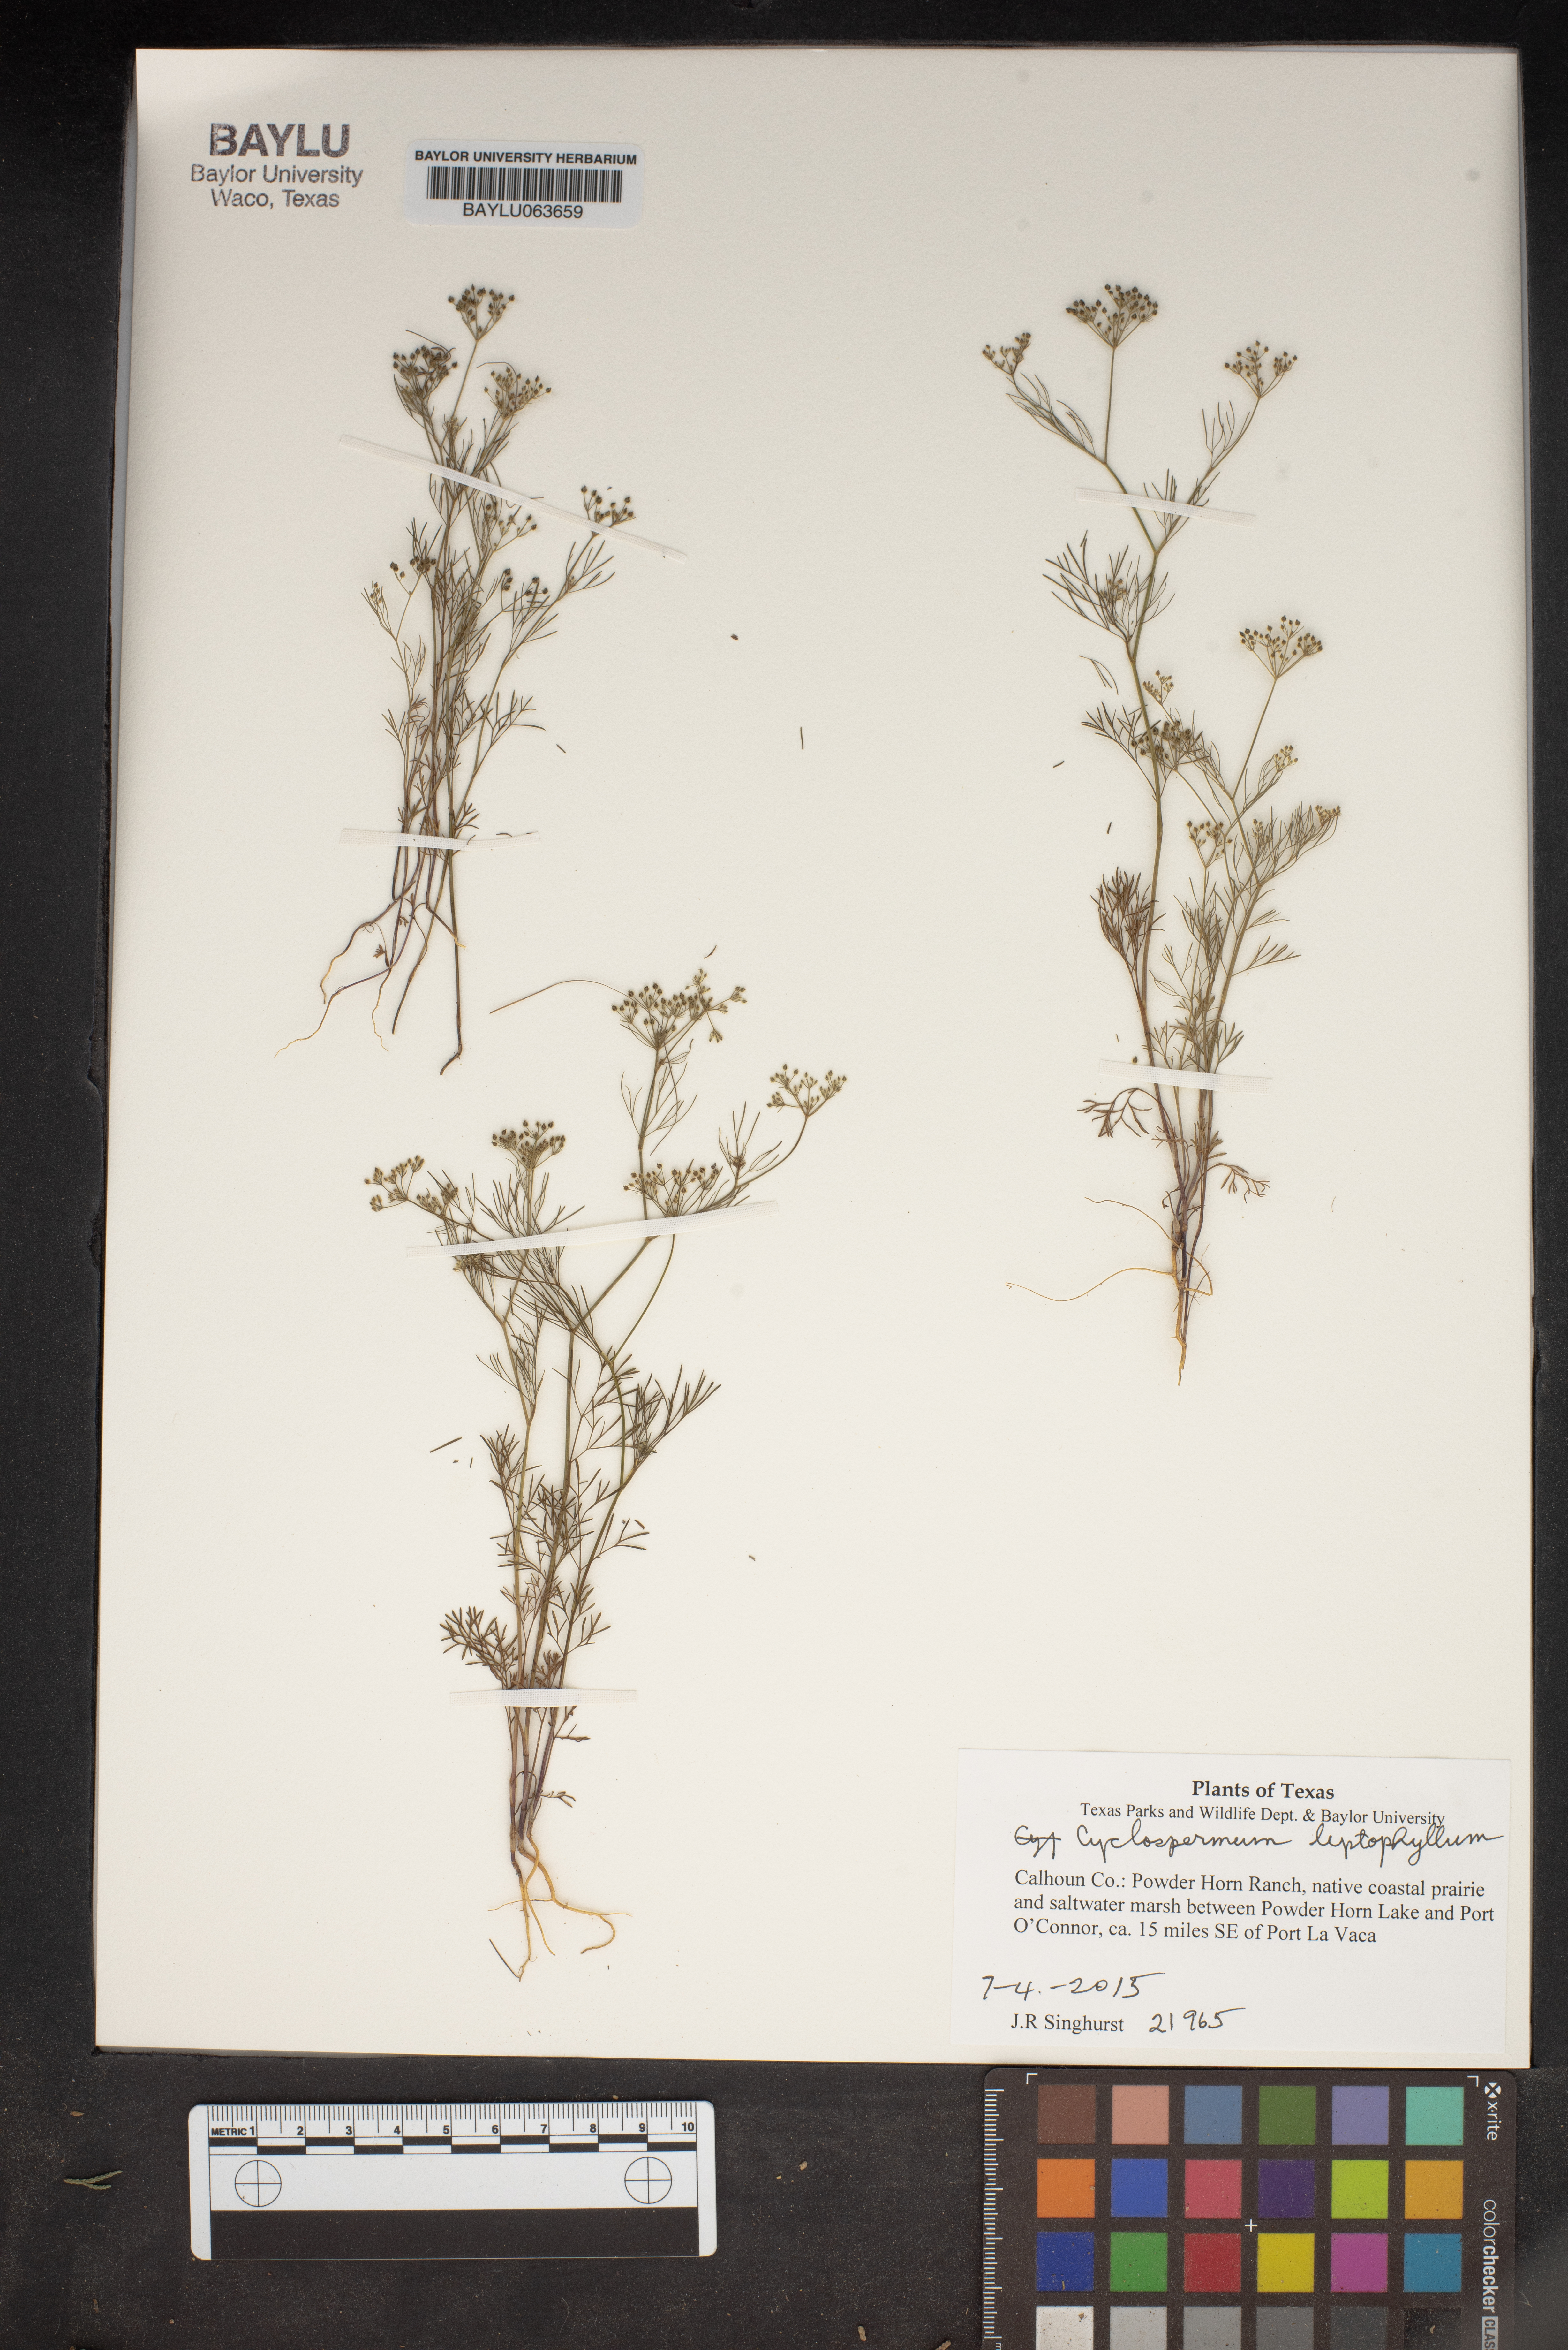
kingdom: Plantae
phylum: Tracheophyta
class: Magnoliopsida
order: Apiales
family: Apiaceae
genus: Cyclospermum
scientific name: Cyclospermum leptophyllum
